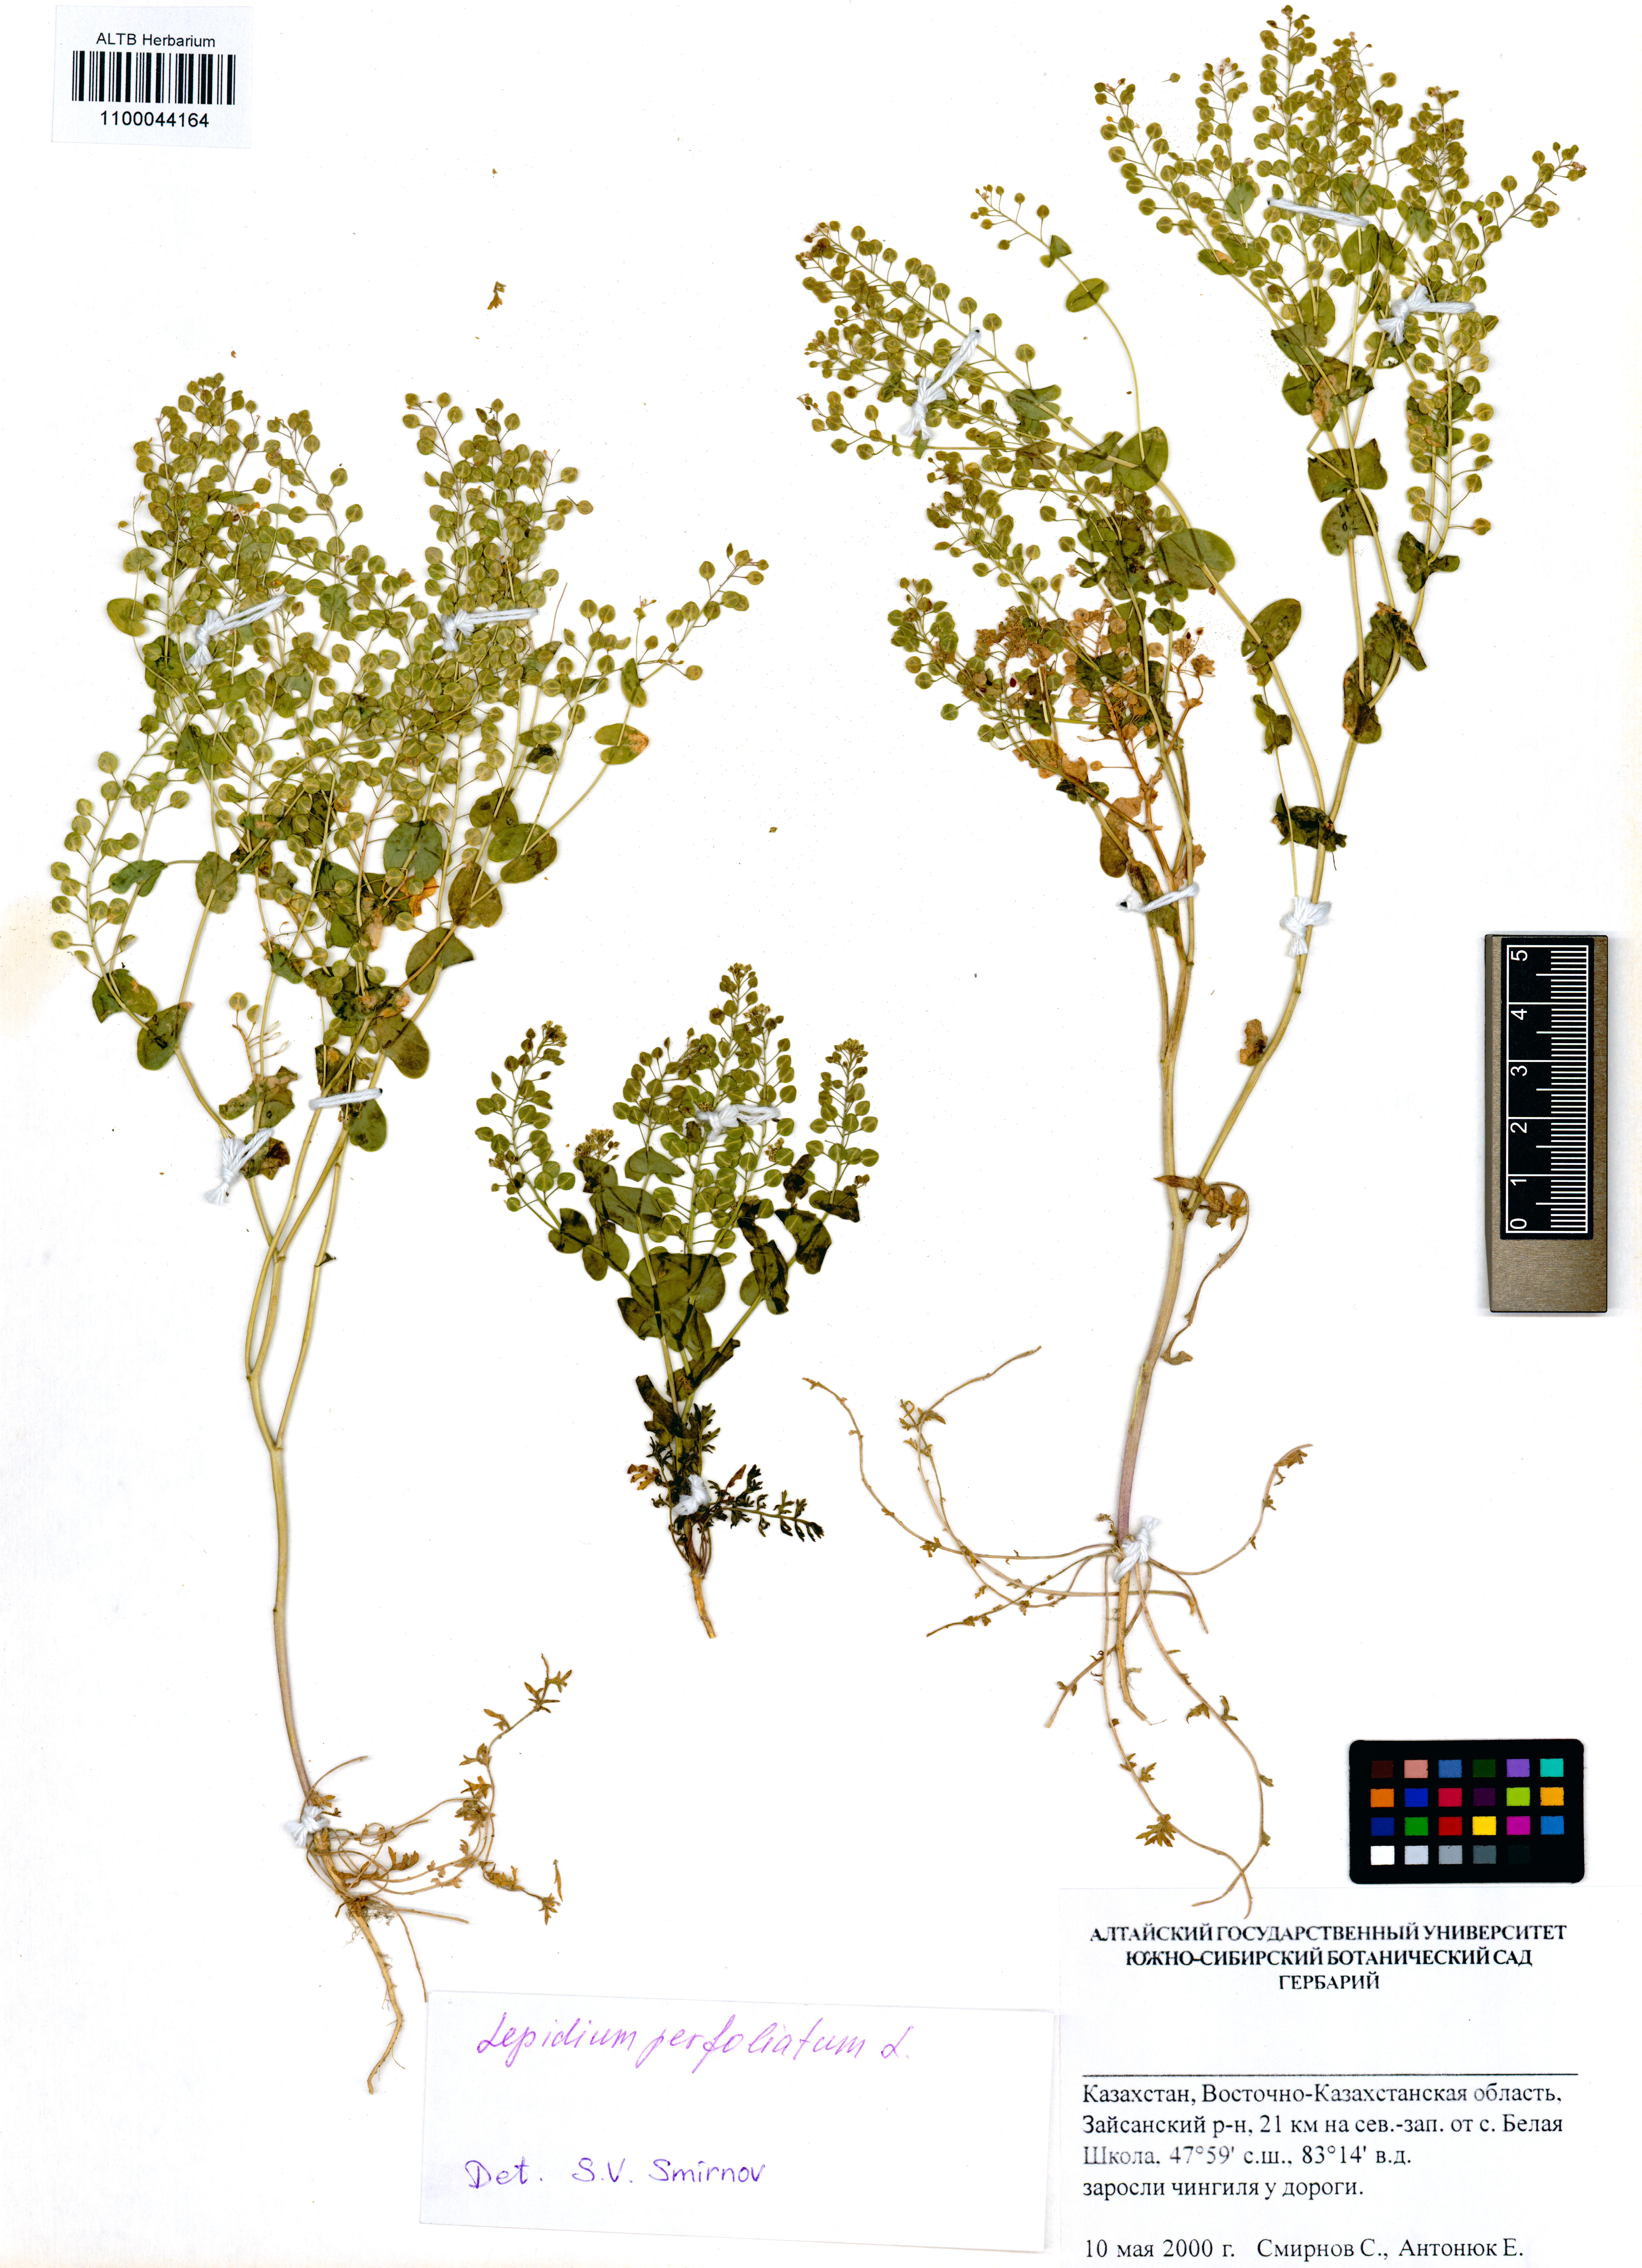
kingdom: Plantae
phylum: Tracheophyta
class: Magnoliopsida
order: Brassicales
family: Brassicaceae
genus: Lepidium
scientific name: Lepidium perfoliatum
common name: Perfoliate pepperwort
